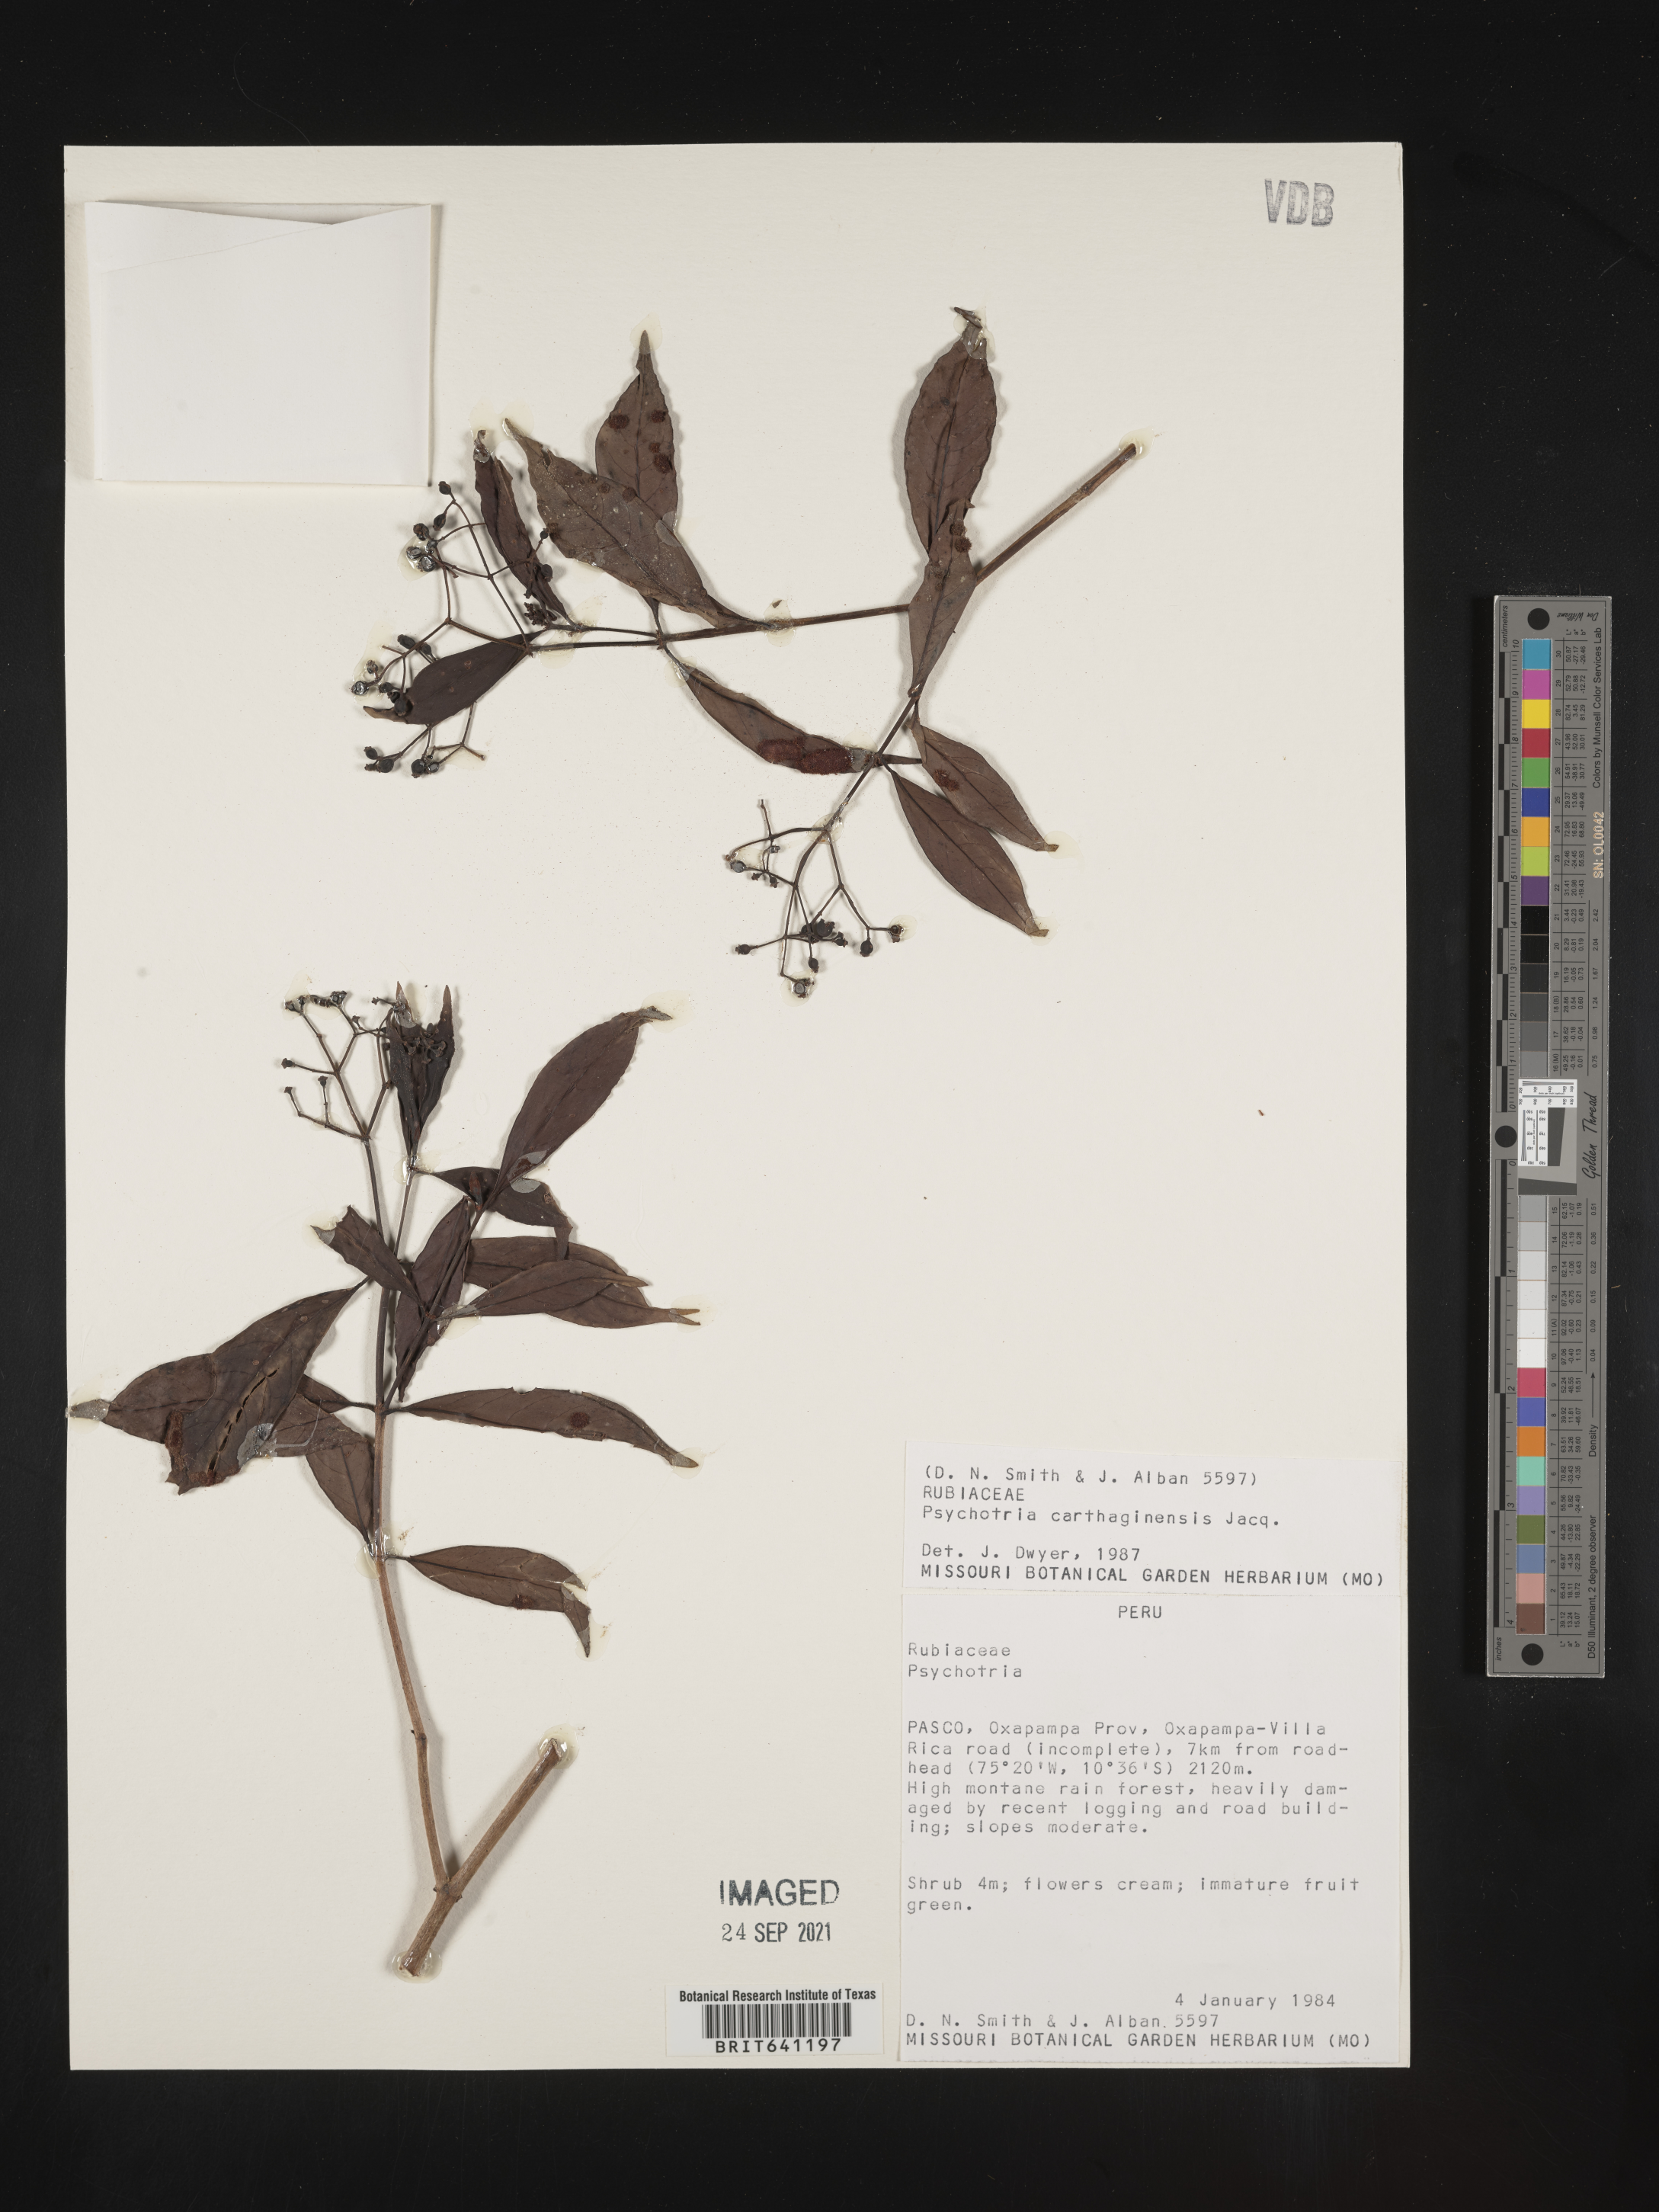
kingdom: Plantae
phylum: Tracheophyta
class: Magnoliopsida
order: Gentianales
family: Rubiaceae
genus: Psychotria
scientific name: Psychotria
